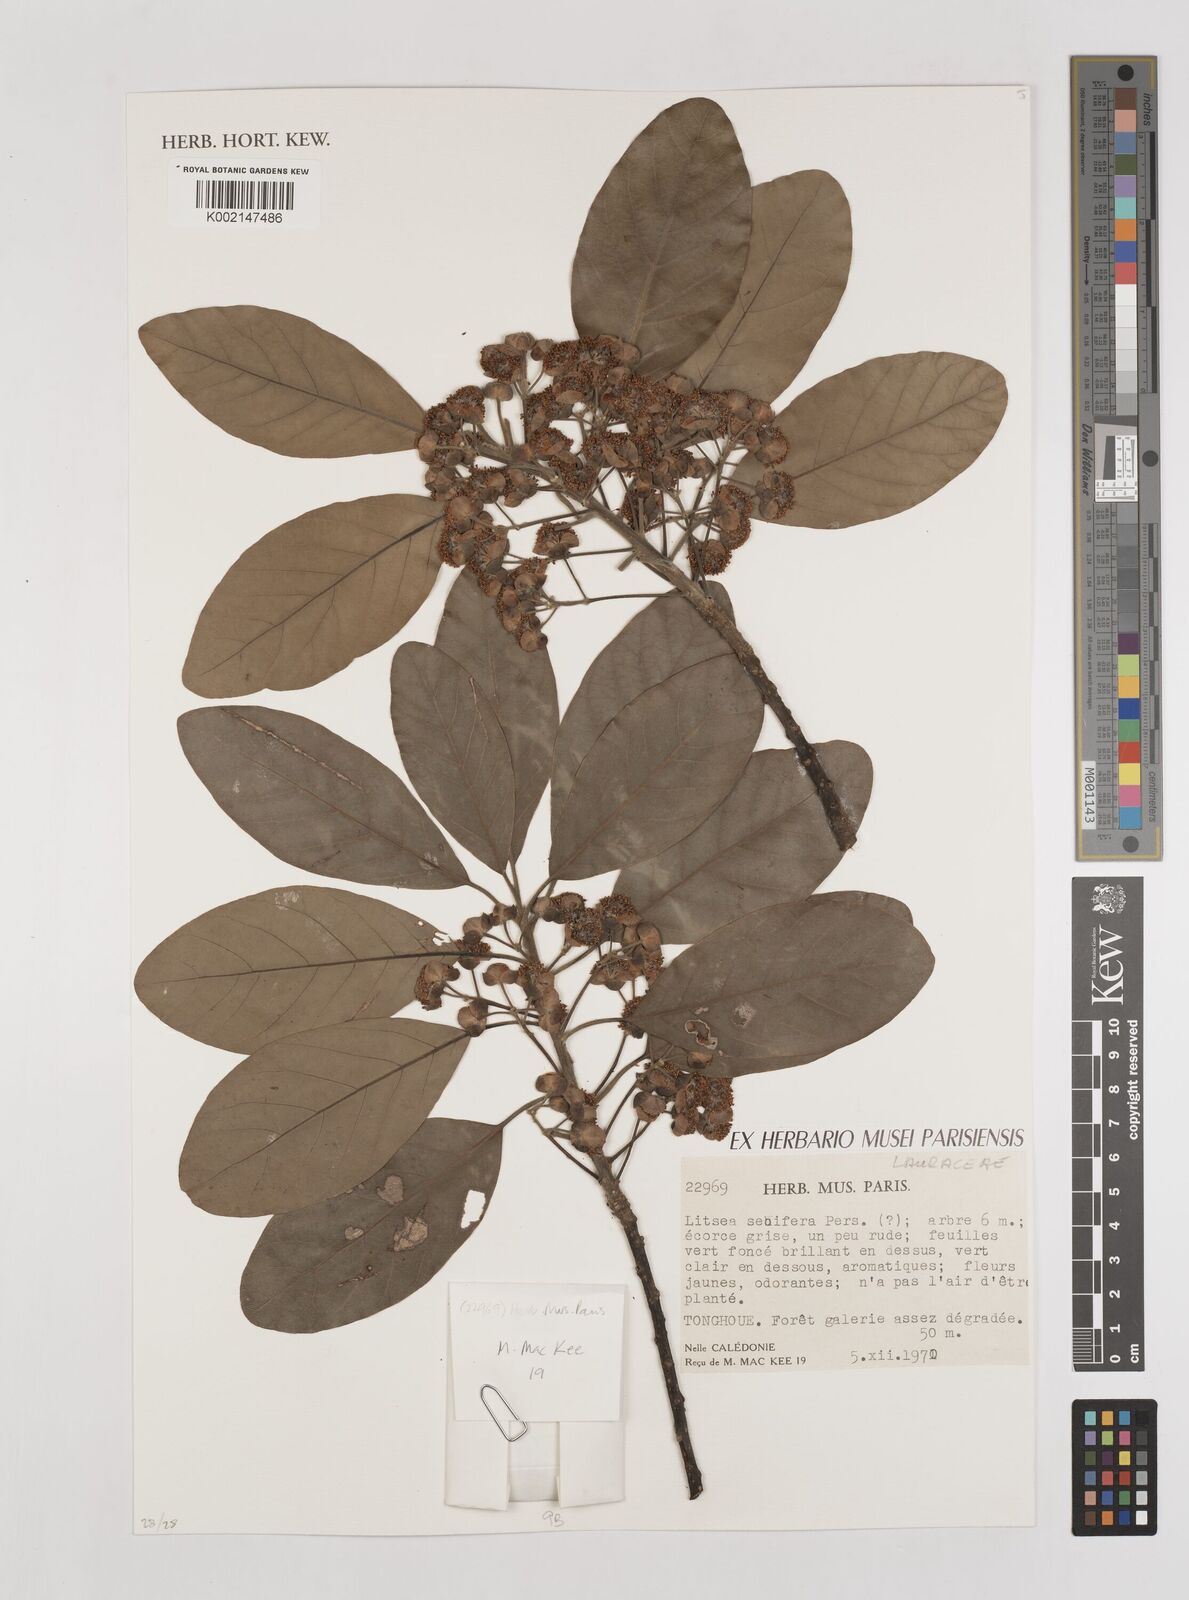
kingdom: Plantae
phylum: Tracheophyta
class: Magnoliopsida
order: Laurales
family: Lauraceae
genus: Litsea
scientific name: Litsea glutinosa
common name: Indian-laurel
